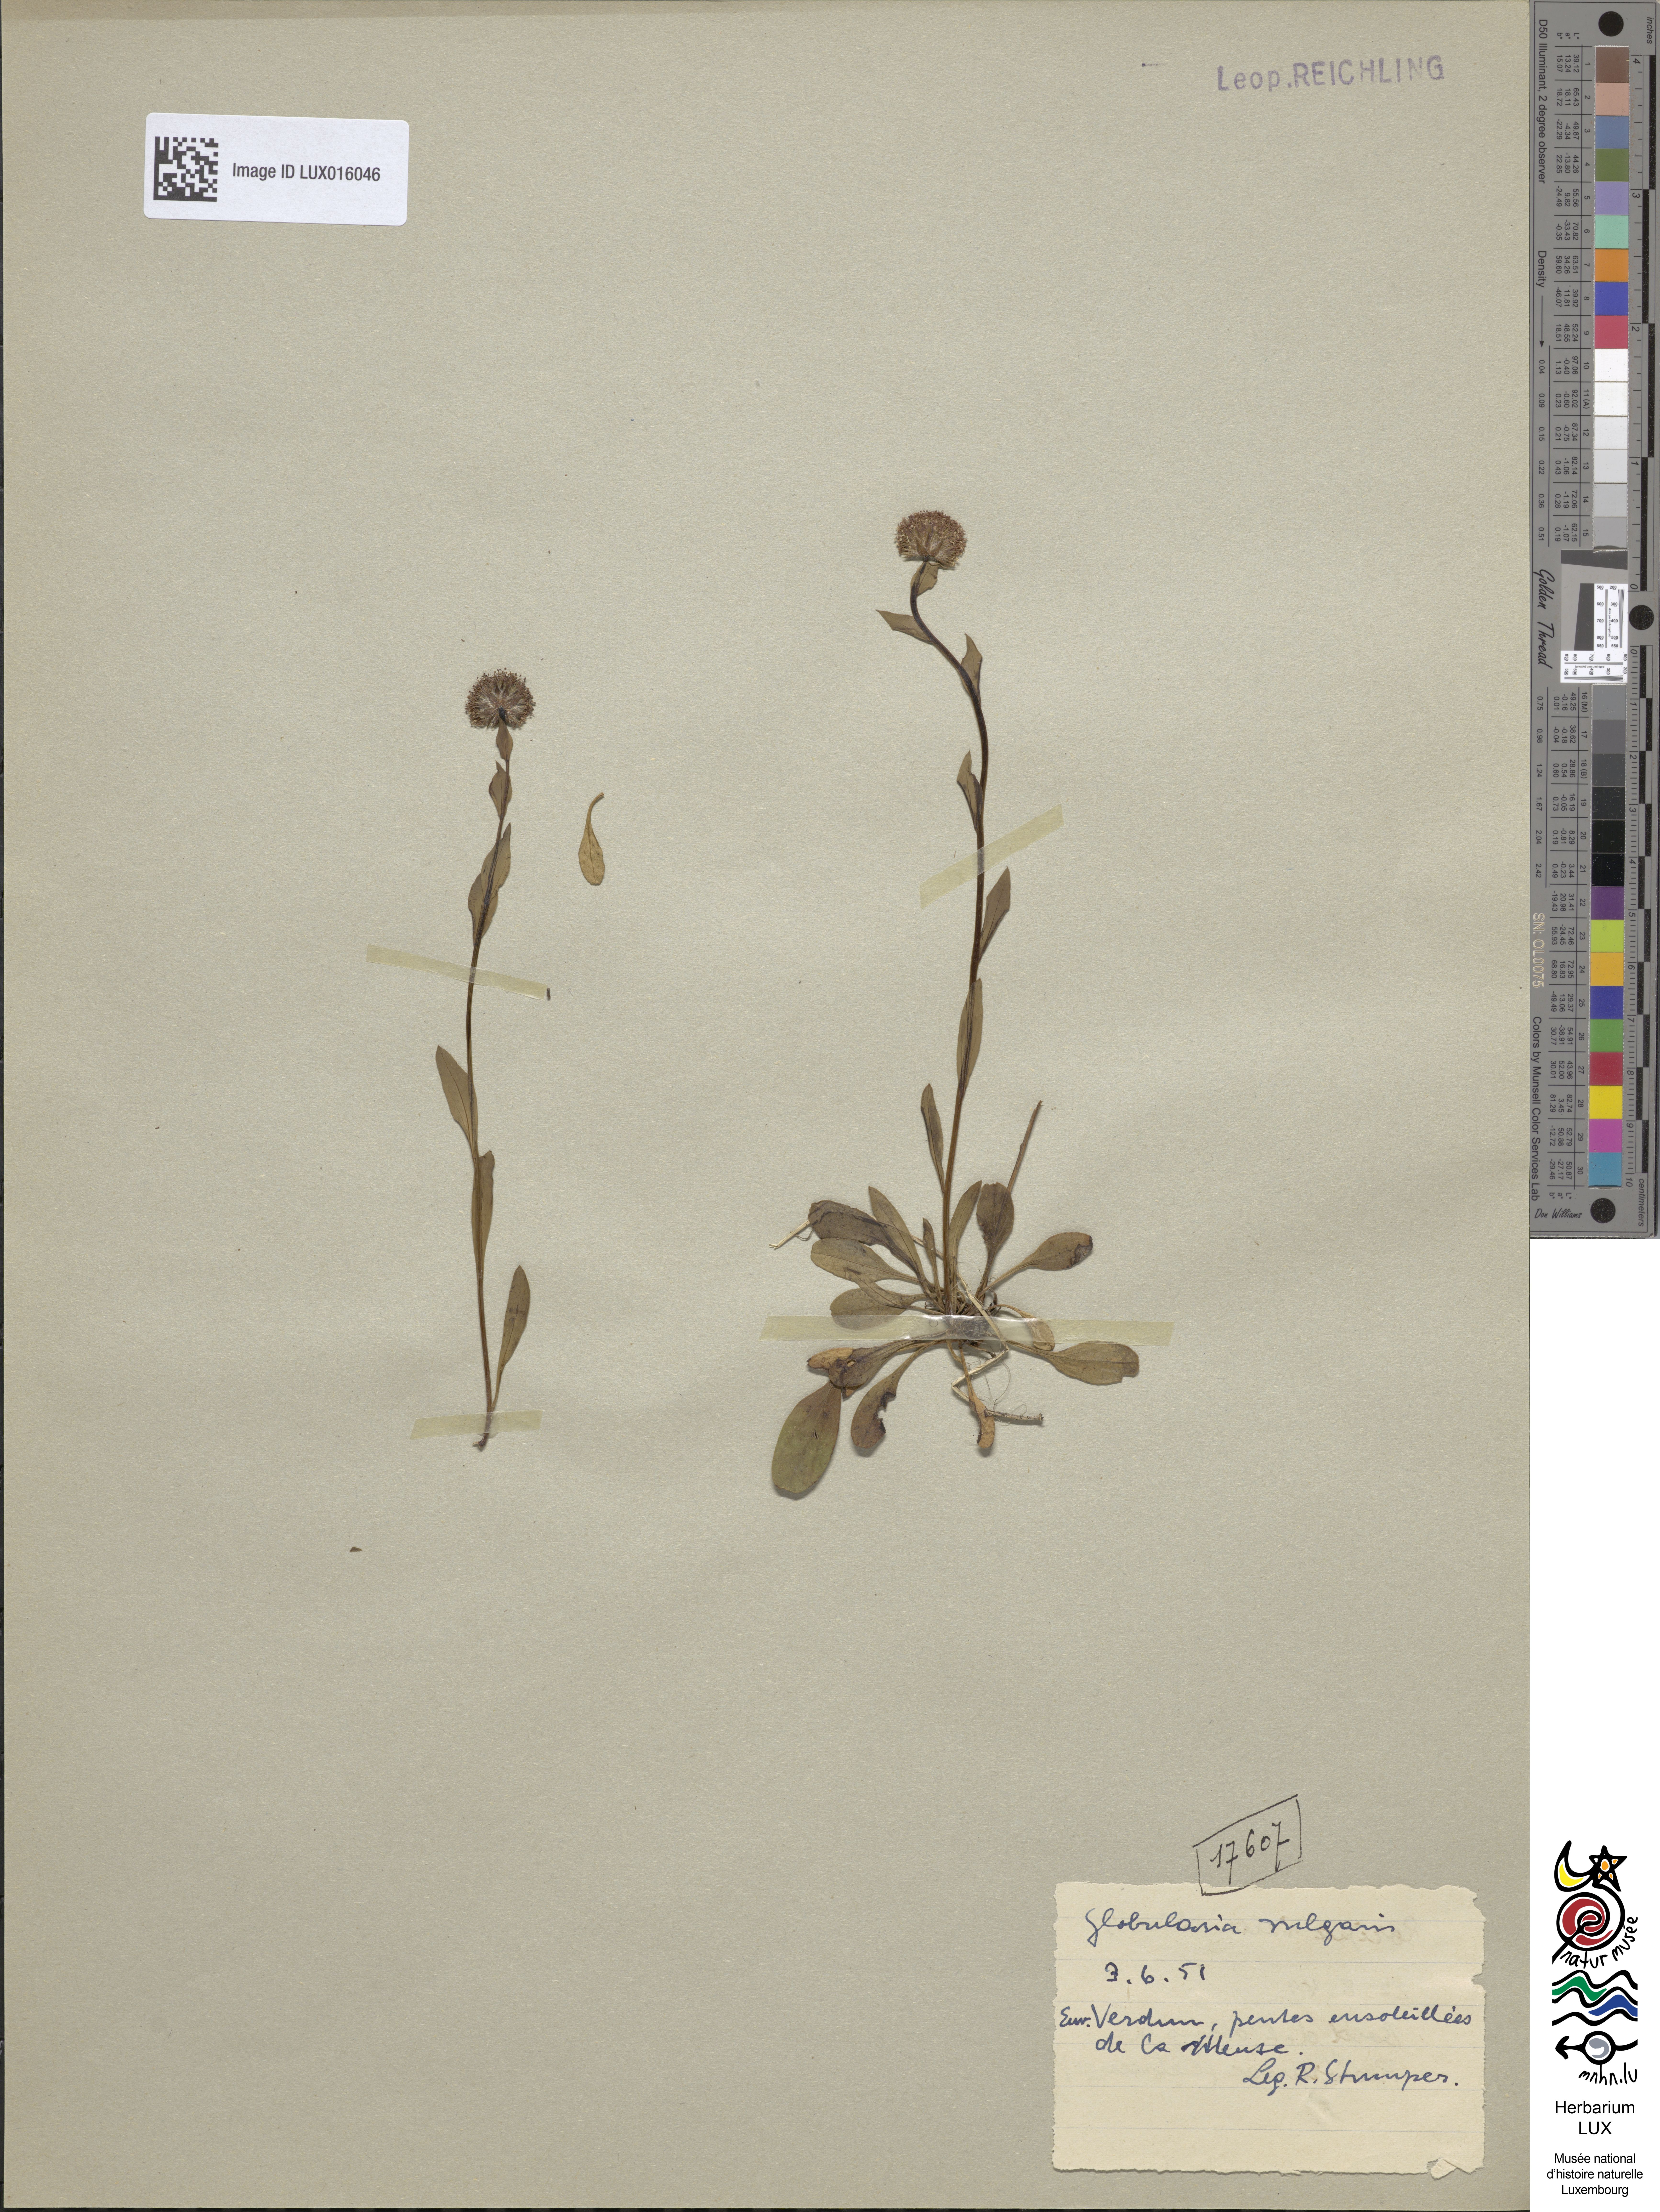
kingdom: Plantae
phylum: Tracheophyta
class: Magnoliopsida
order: Lamiales
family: Plantaginaceae
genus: Globularia
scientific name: Globularia bisnagarica
